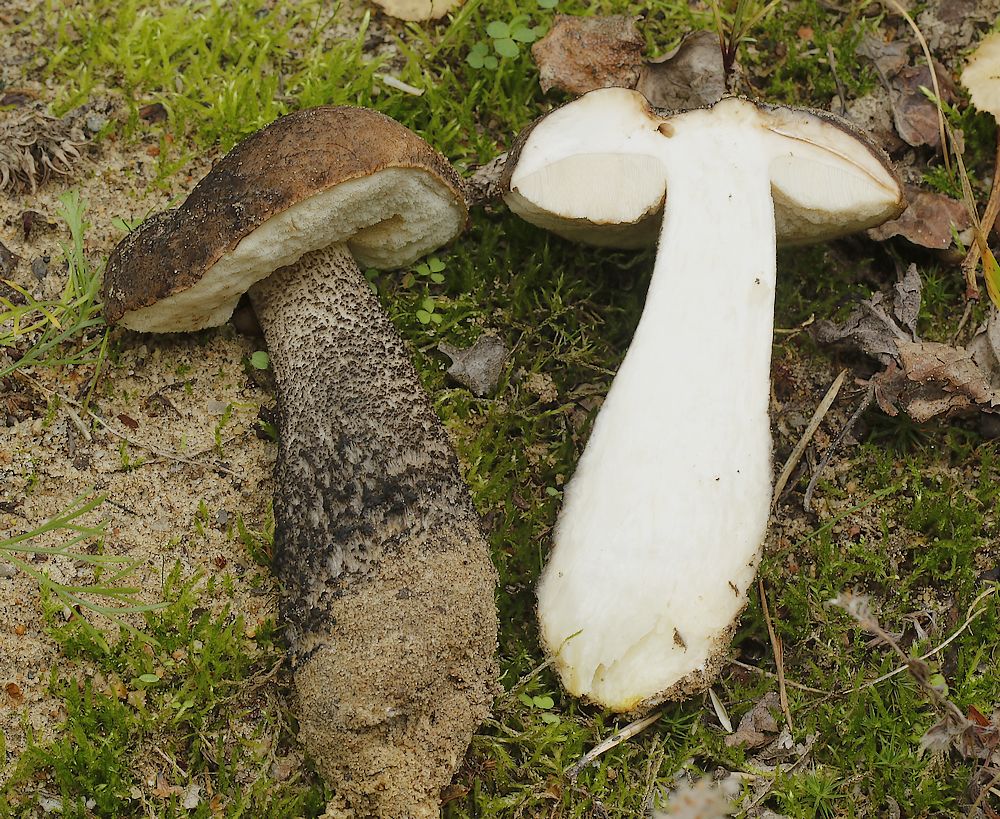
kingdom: Fungi
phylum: Basidiomycota
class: Agaricomycetes
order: Boletales
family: Boletaceae
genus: Leccinum
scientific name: Leccinum scabrum
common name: brun skælrørhat
